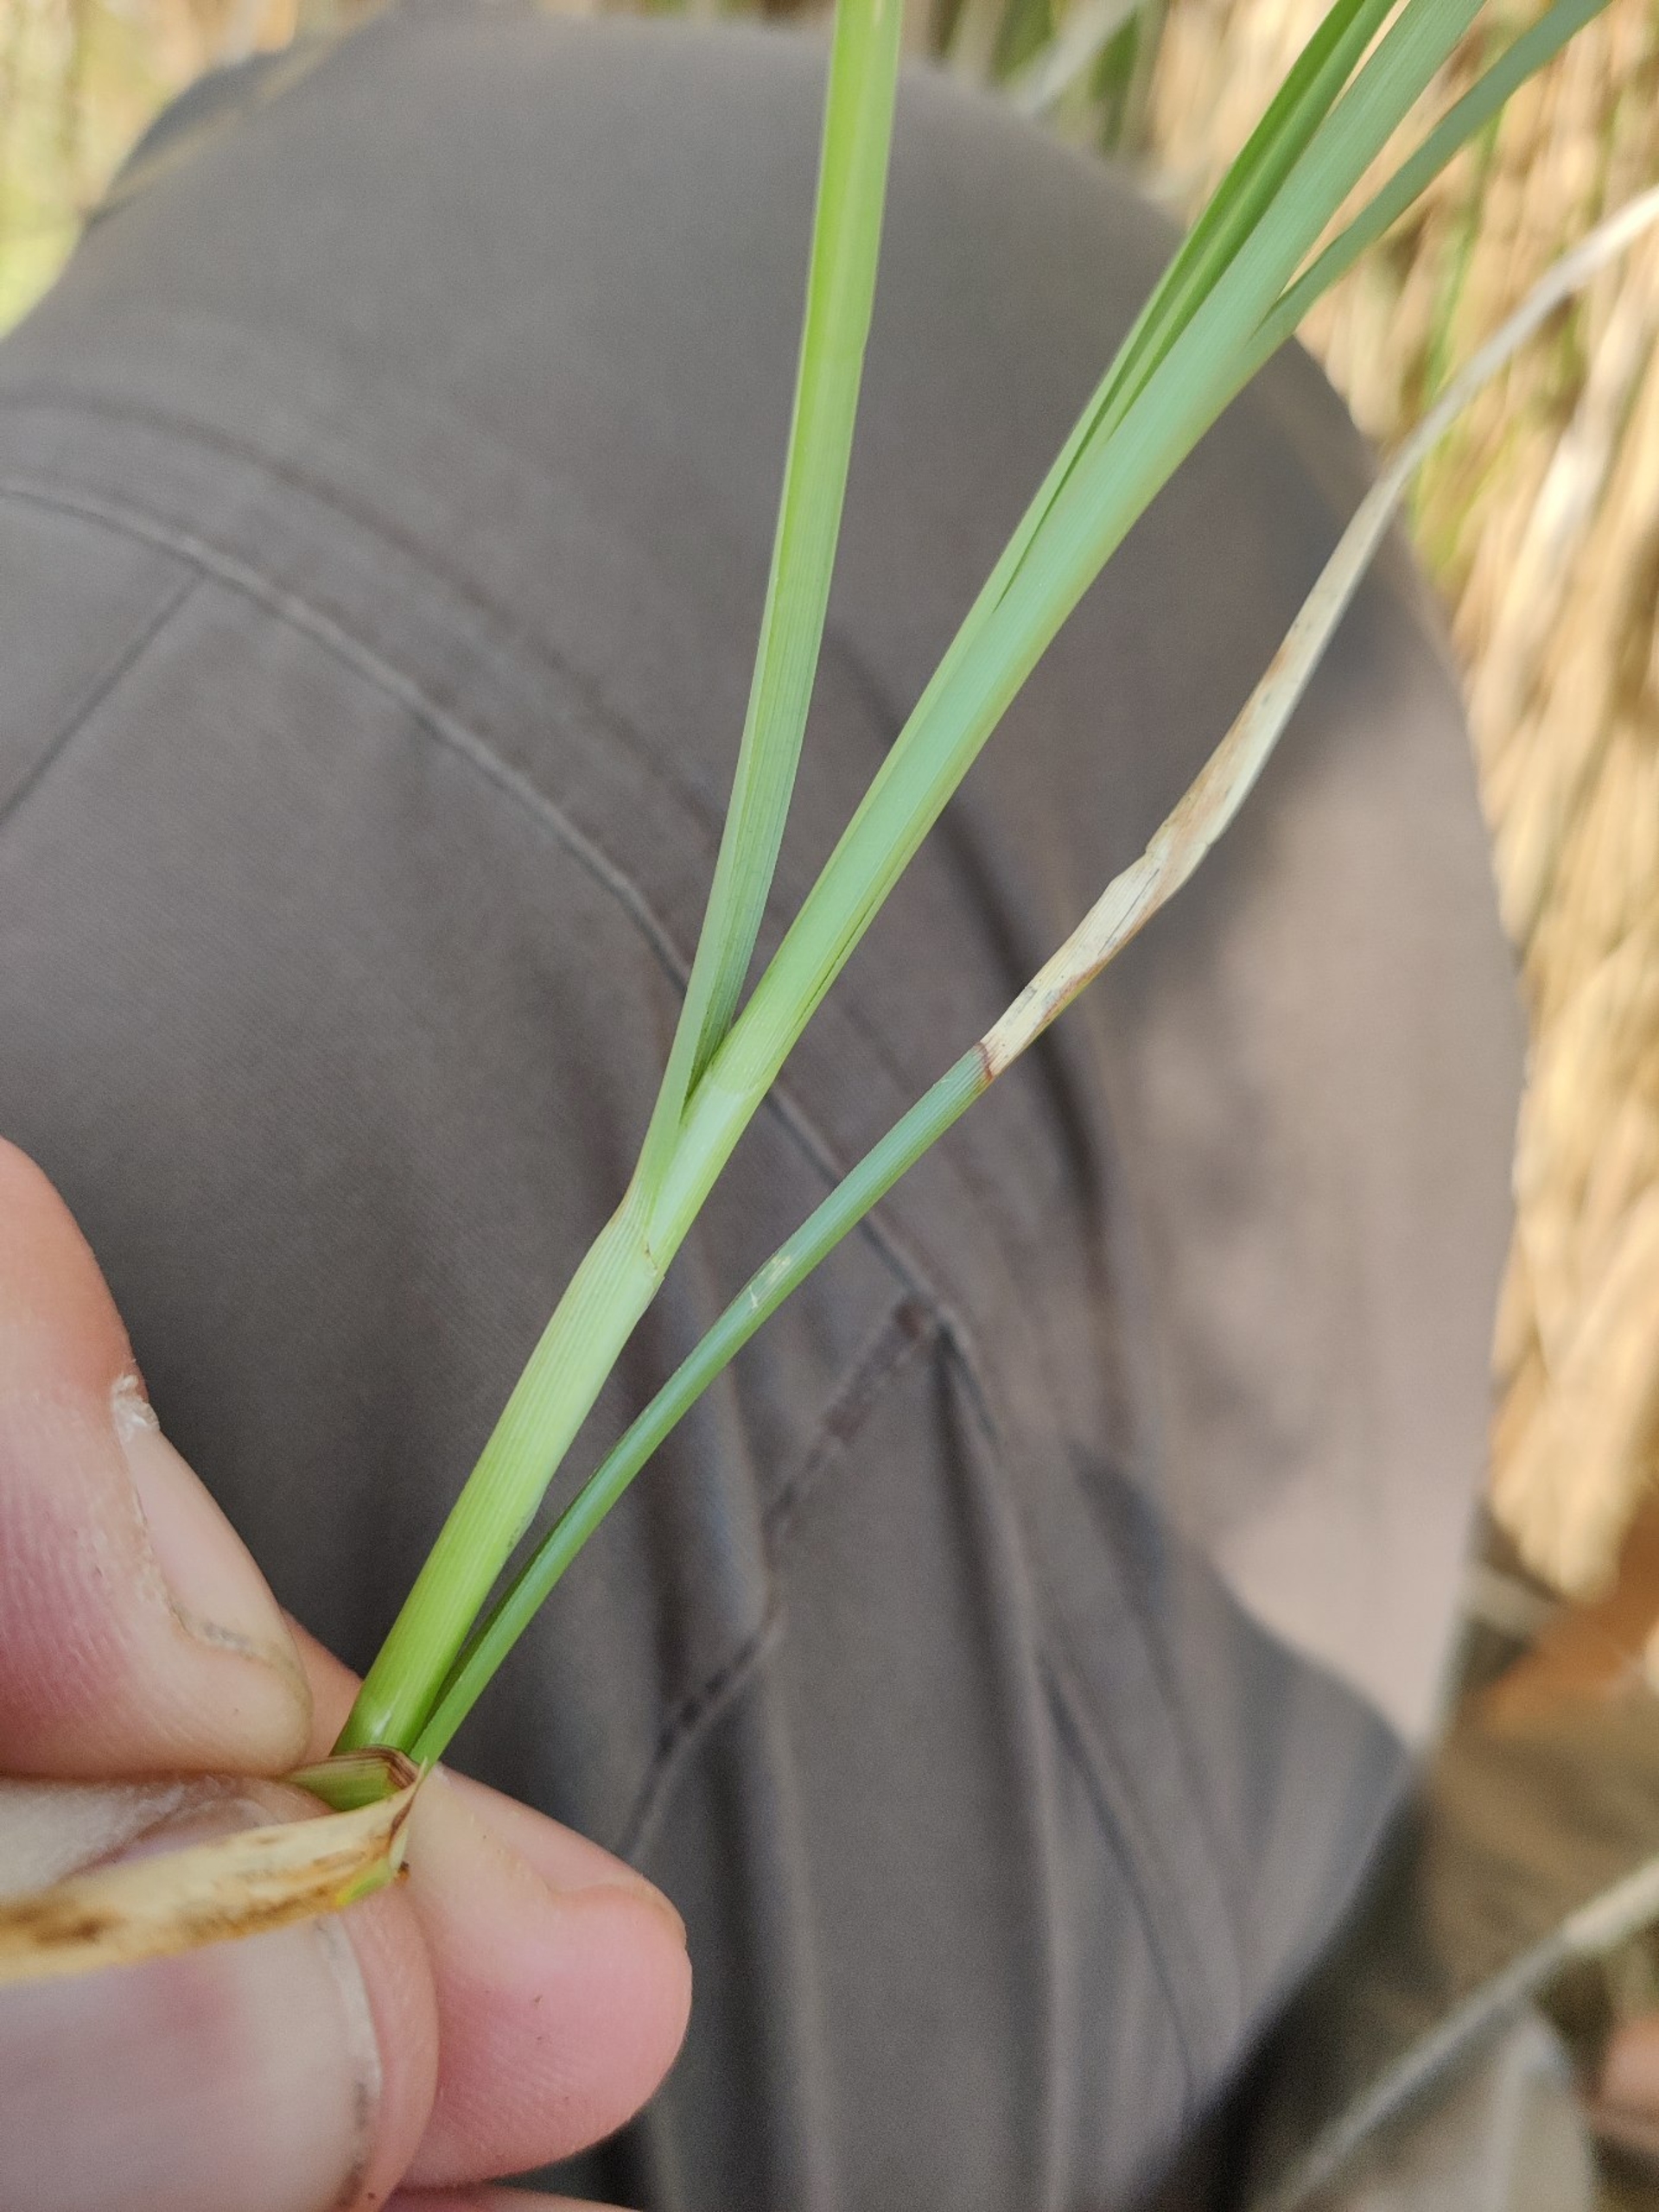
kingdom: Plantae
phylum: Tracheophyta
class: Liliopsida
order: Poales
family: Cyperaceae
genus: Carex
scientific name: Carex paniculata
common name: Top-star
